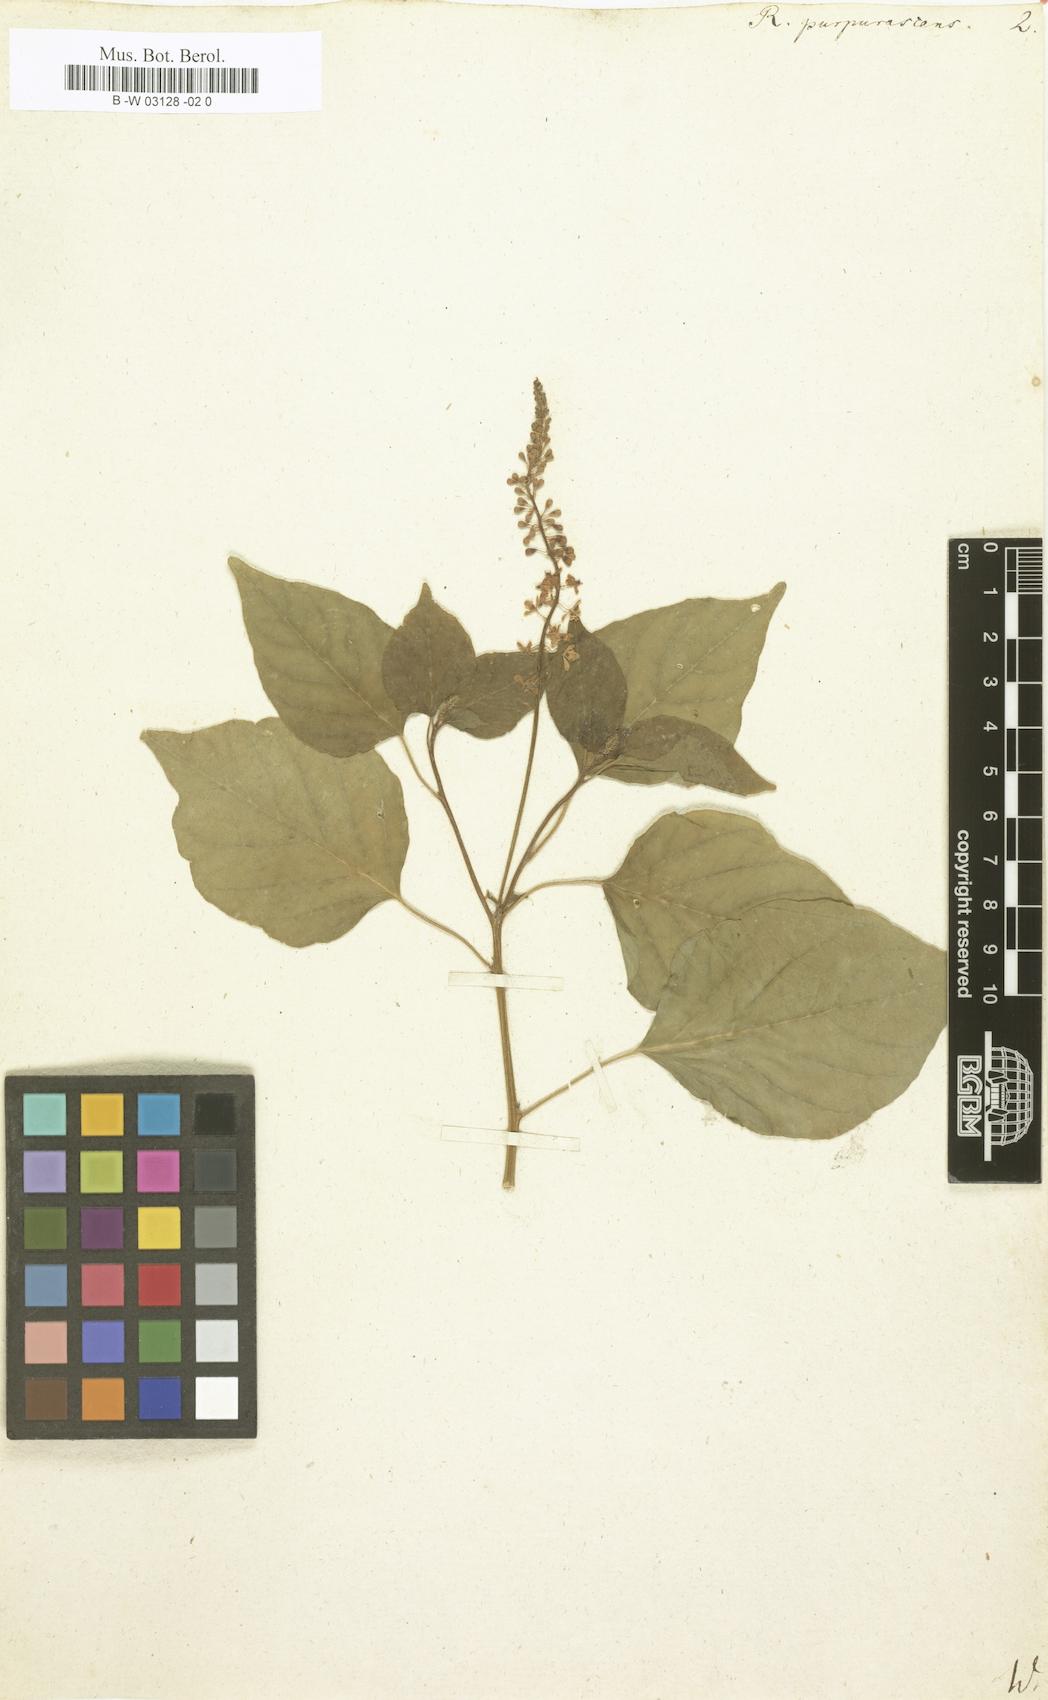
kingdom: Plantae
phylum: Tracheophyta
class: Magnoliopsida
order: Caryophyllales
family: Phytolaccaceae
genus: Rivina
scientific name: Rivina humilis
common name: Rougeplant
